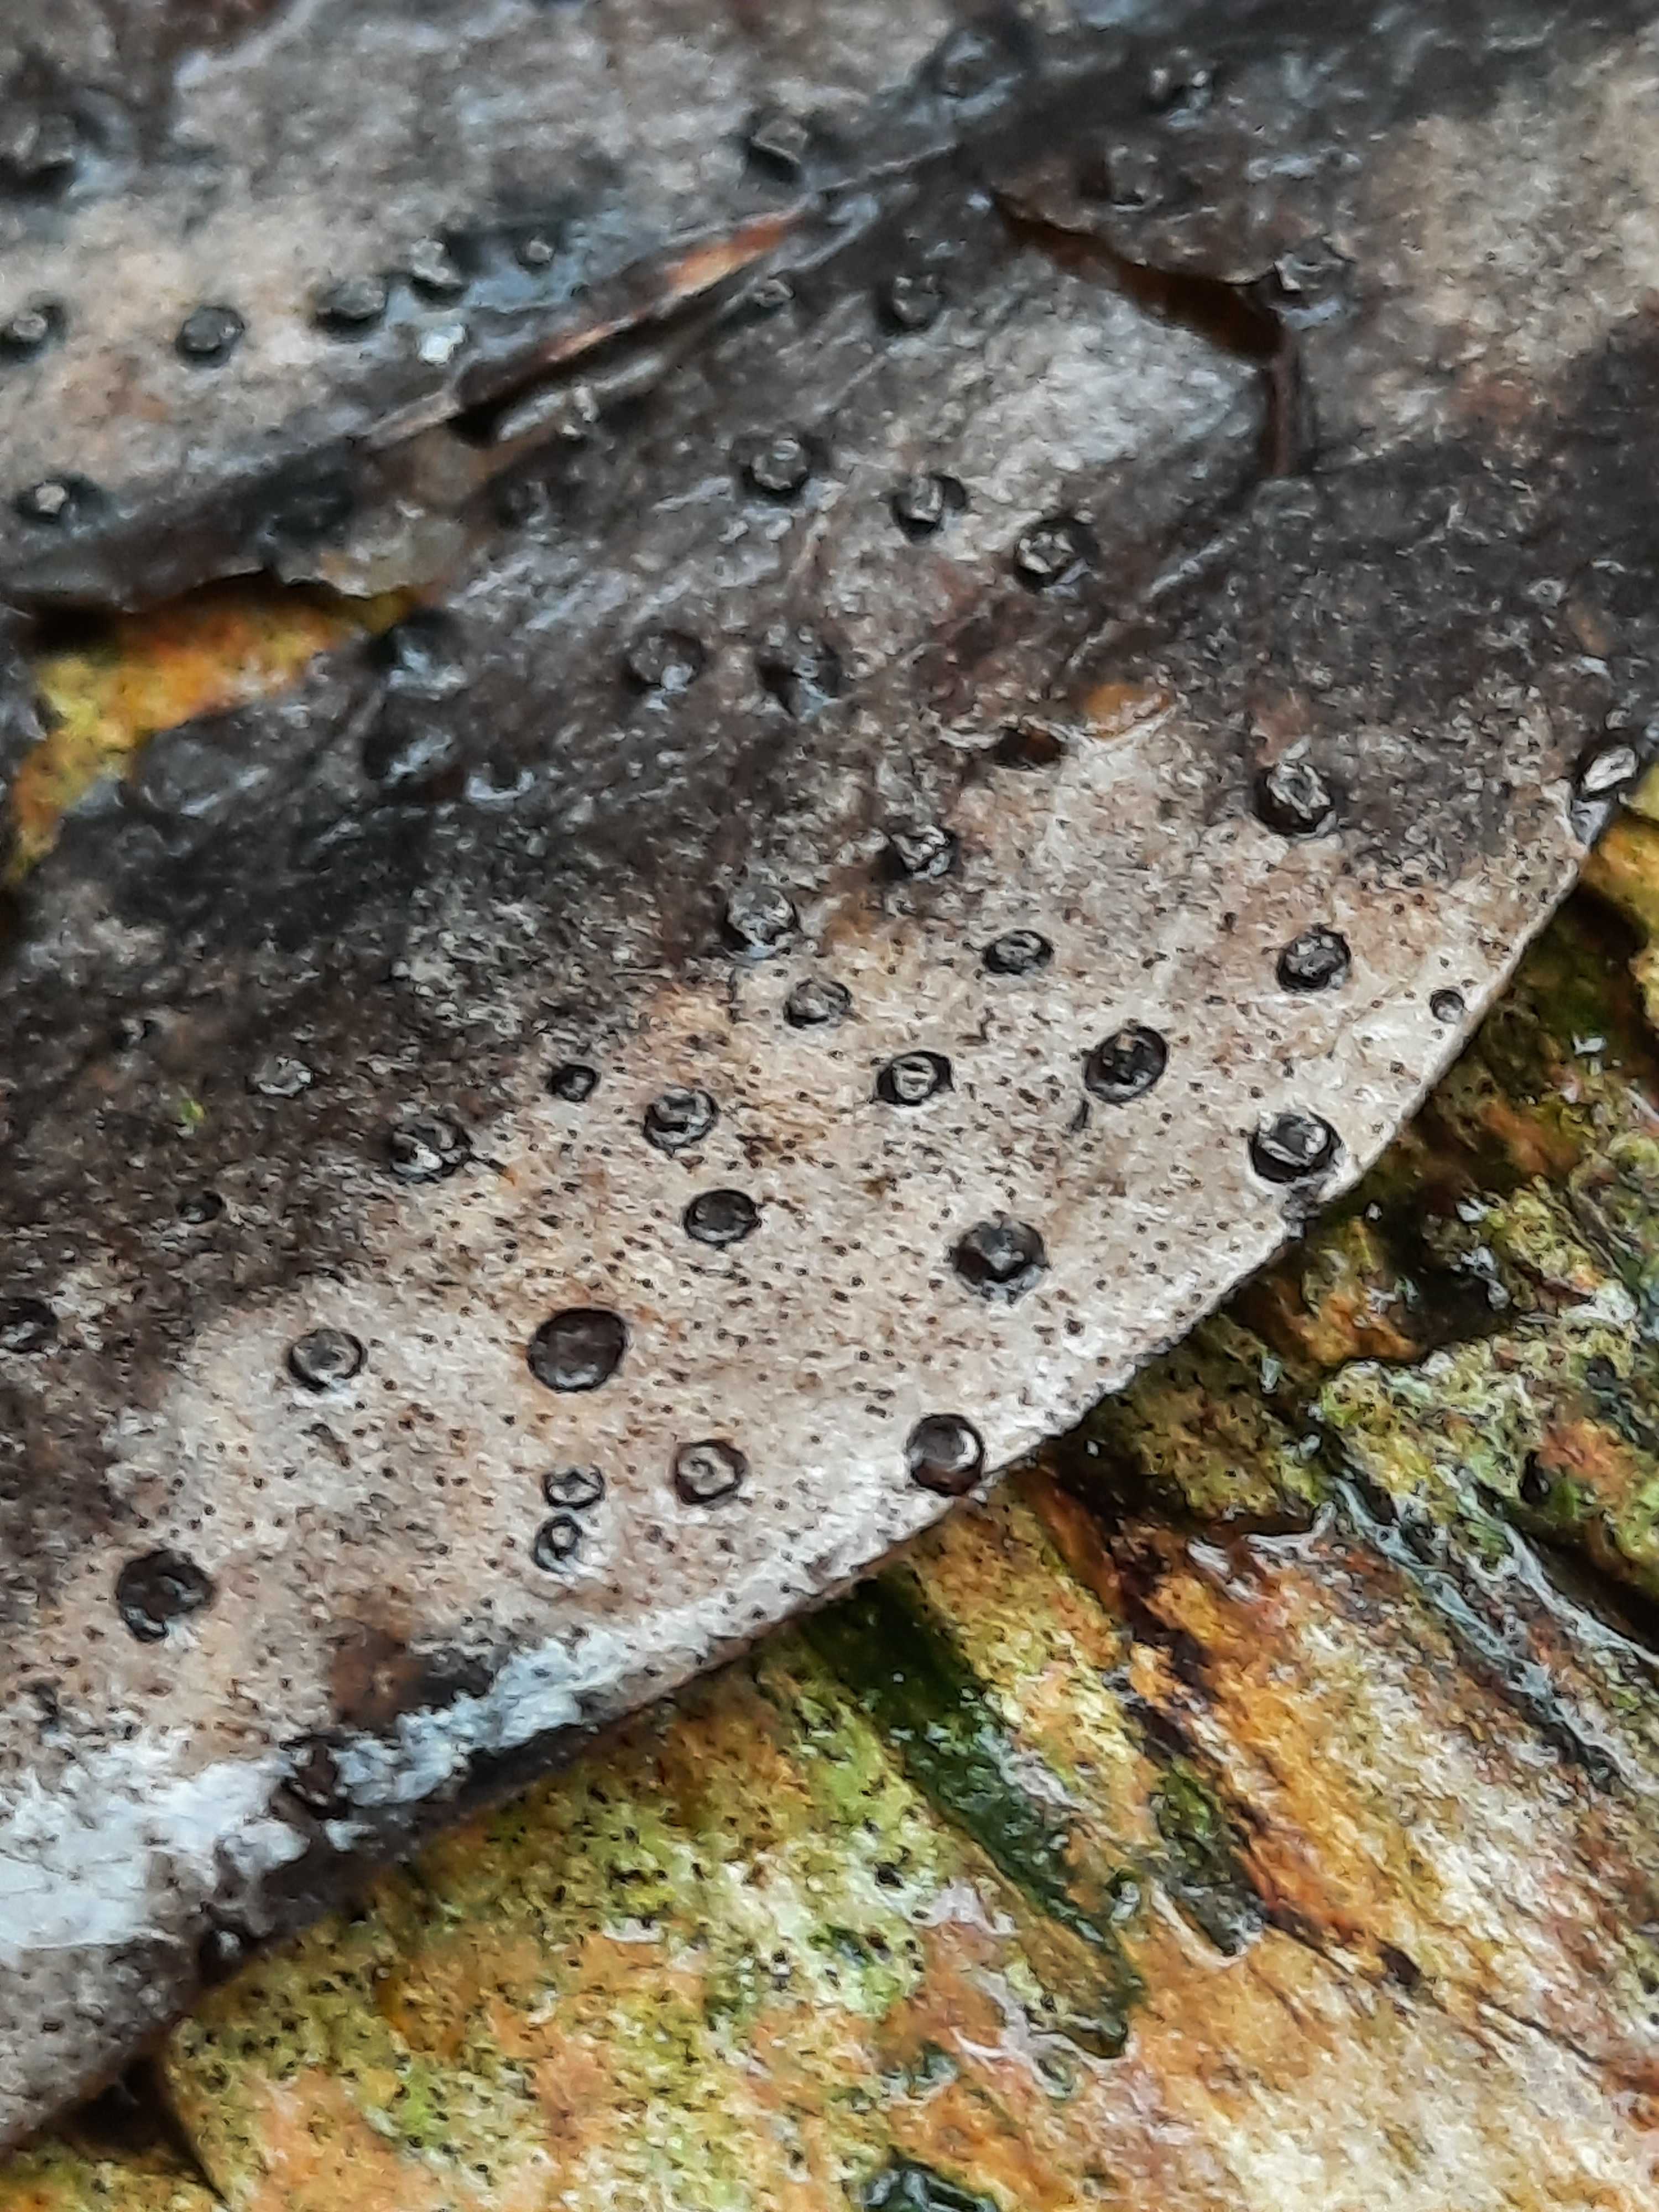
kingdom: Fungi
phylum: Ascomycota
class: Leotiomycetes
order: Phacidiales
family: Phacidiaceae
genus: Phacidium
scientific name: Phacidium lauri
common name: kristtorn-tandskive
